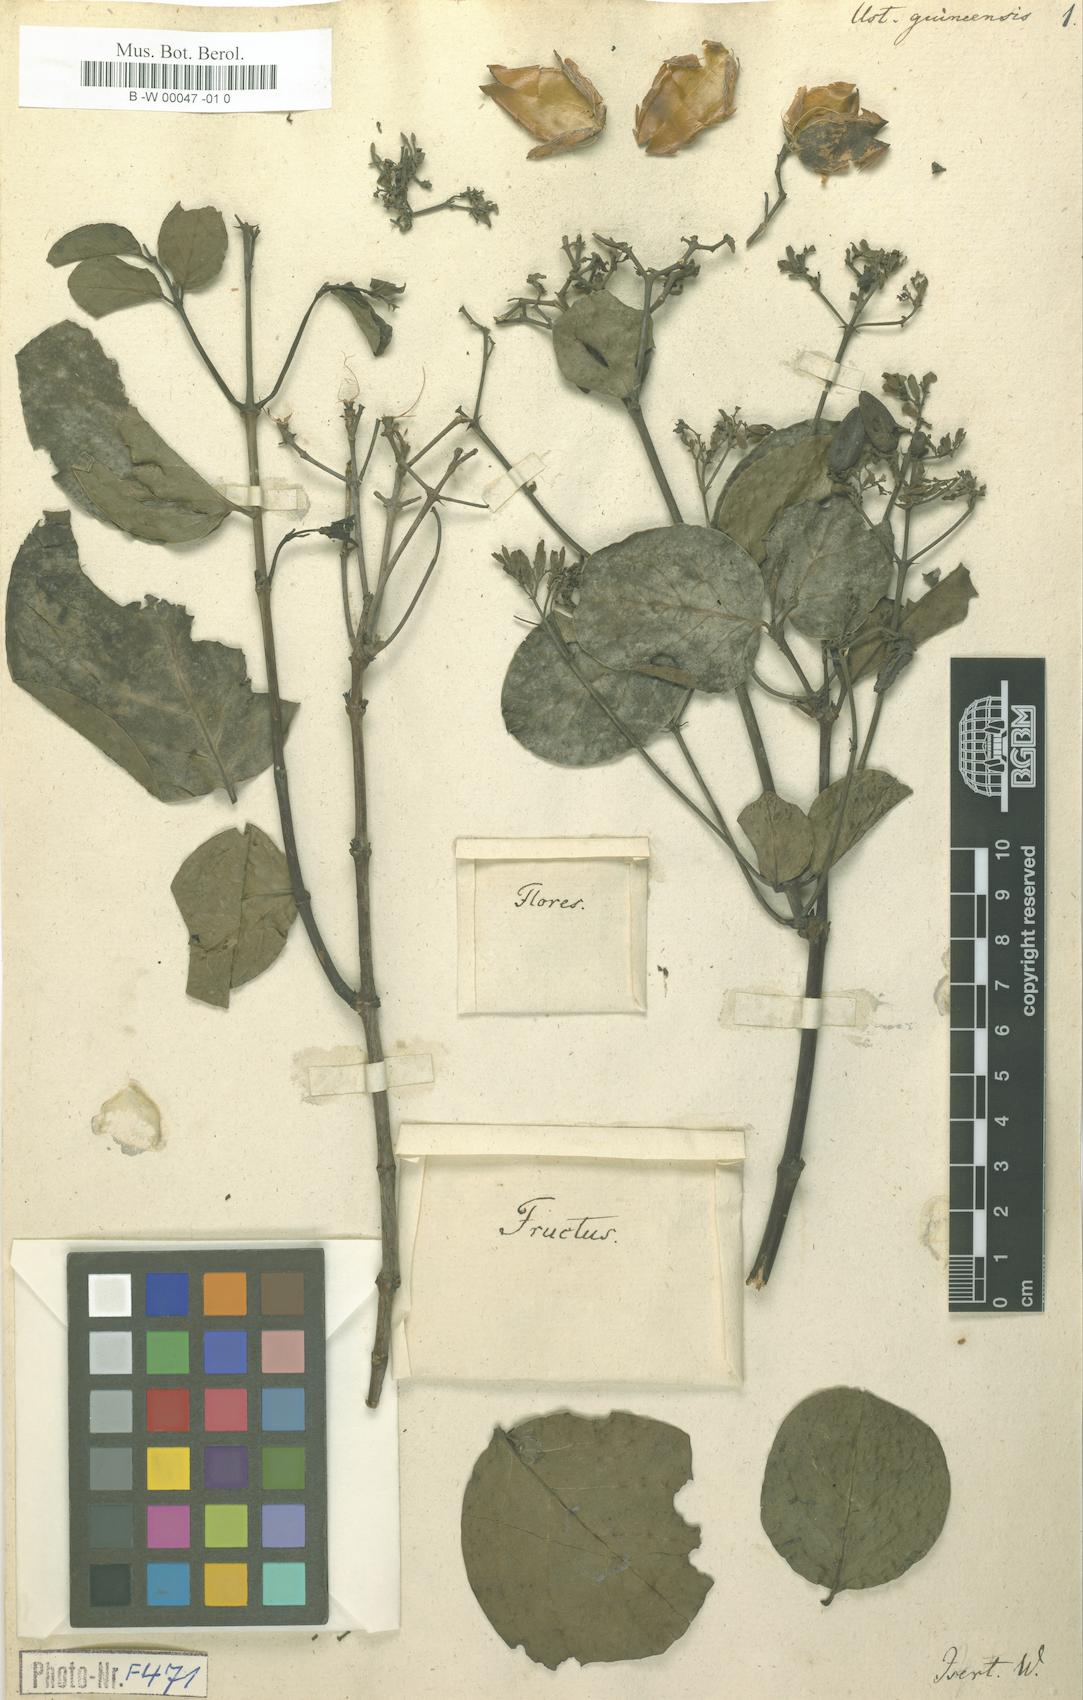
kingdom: Plantae
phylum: Tracheophyta
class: Magnoliopsida
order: Gentianales
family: Loganiaceae
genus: Usteria
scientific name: Usteria guineensis
